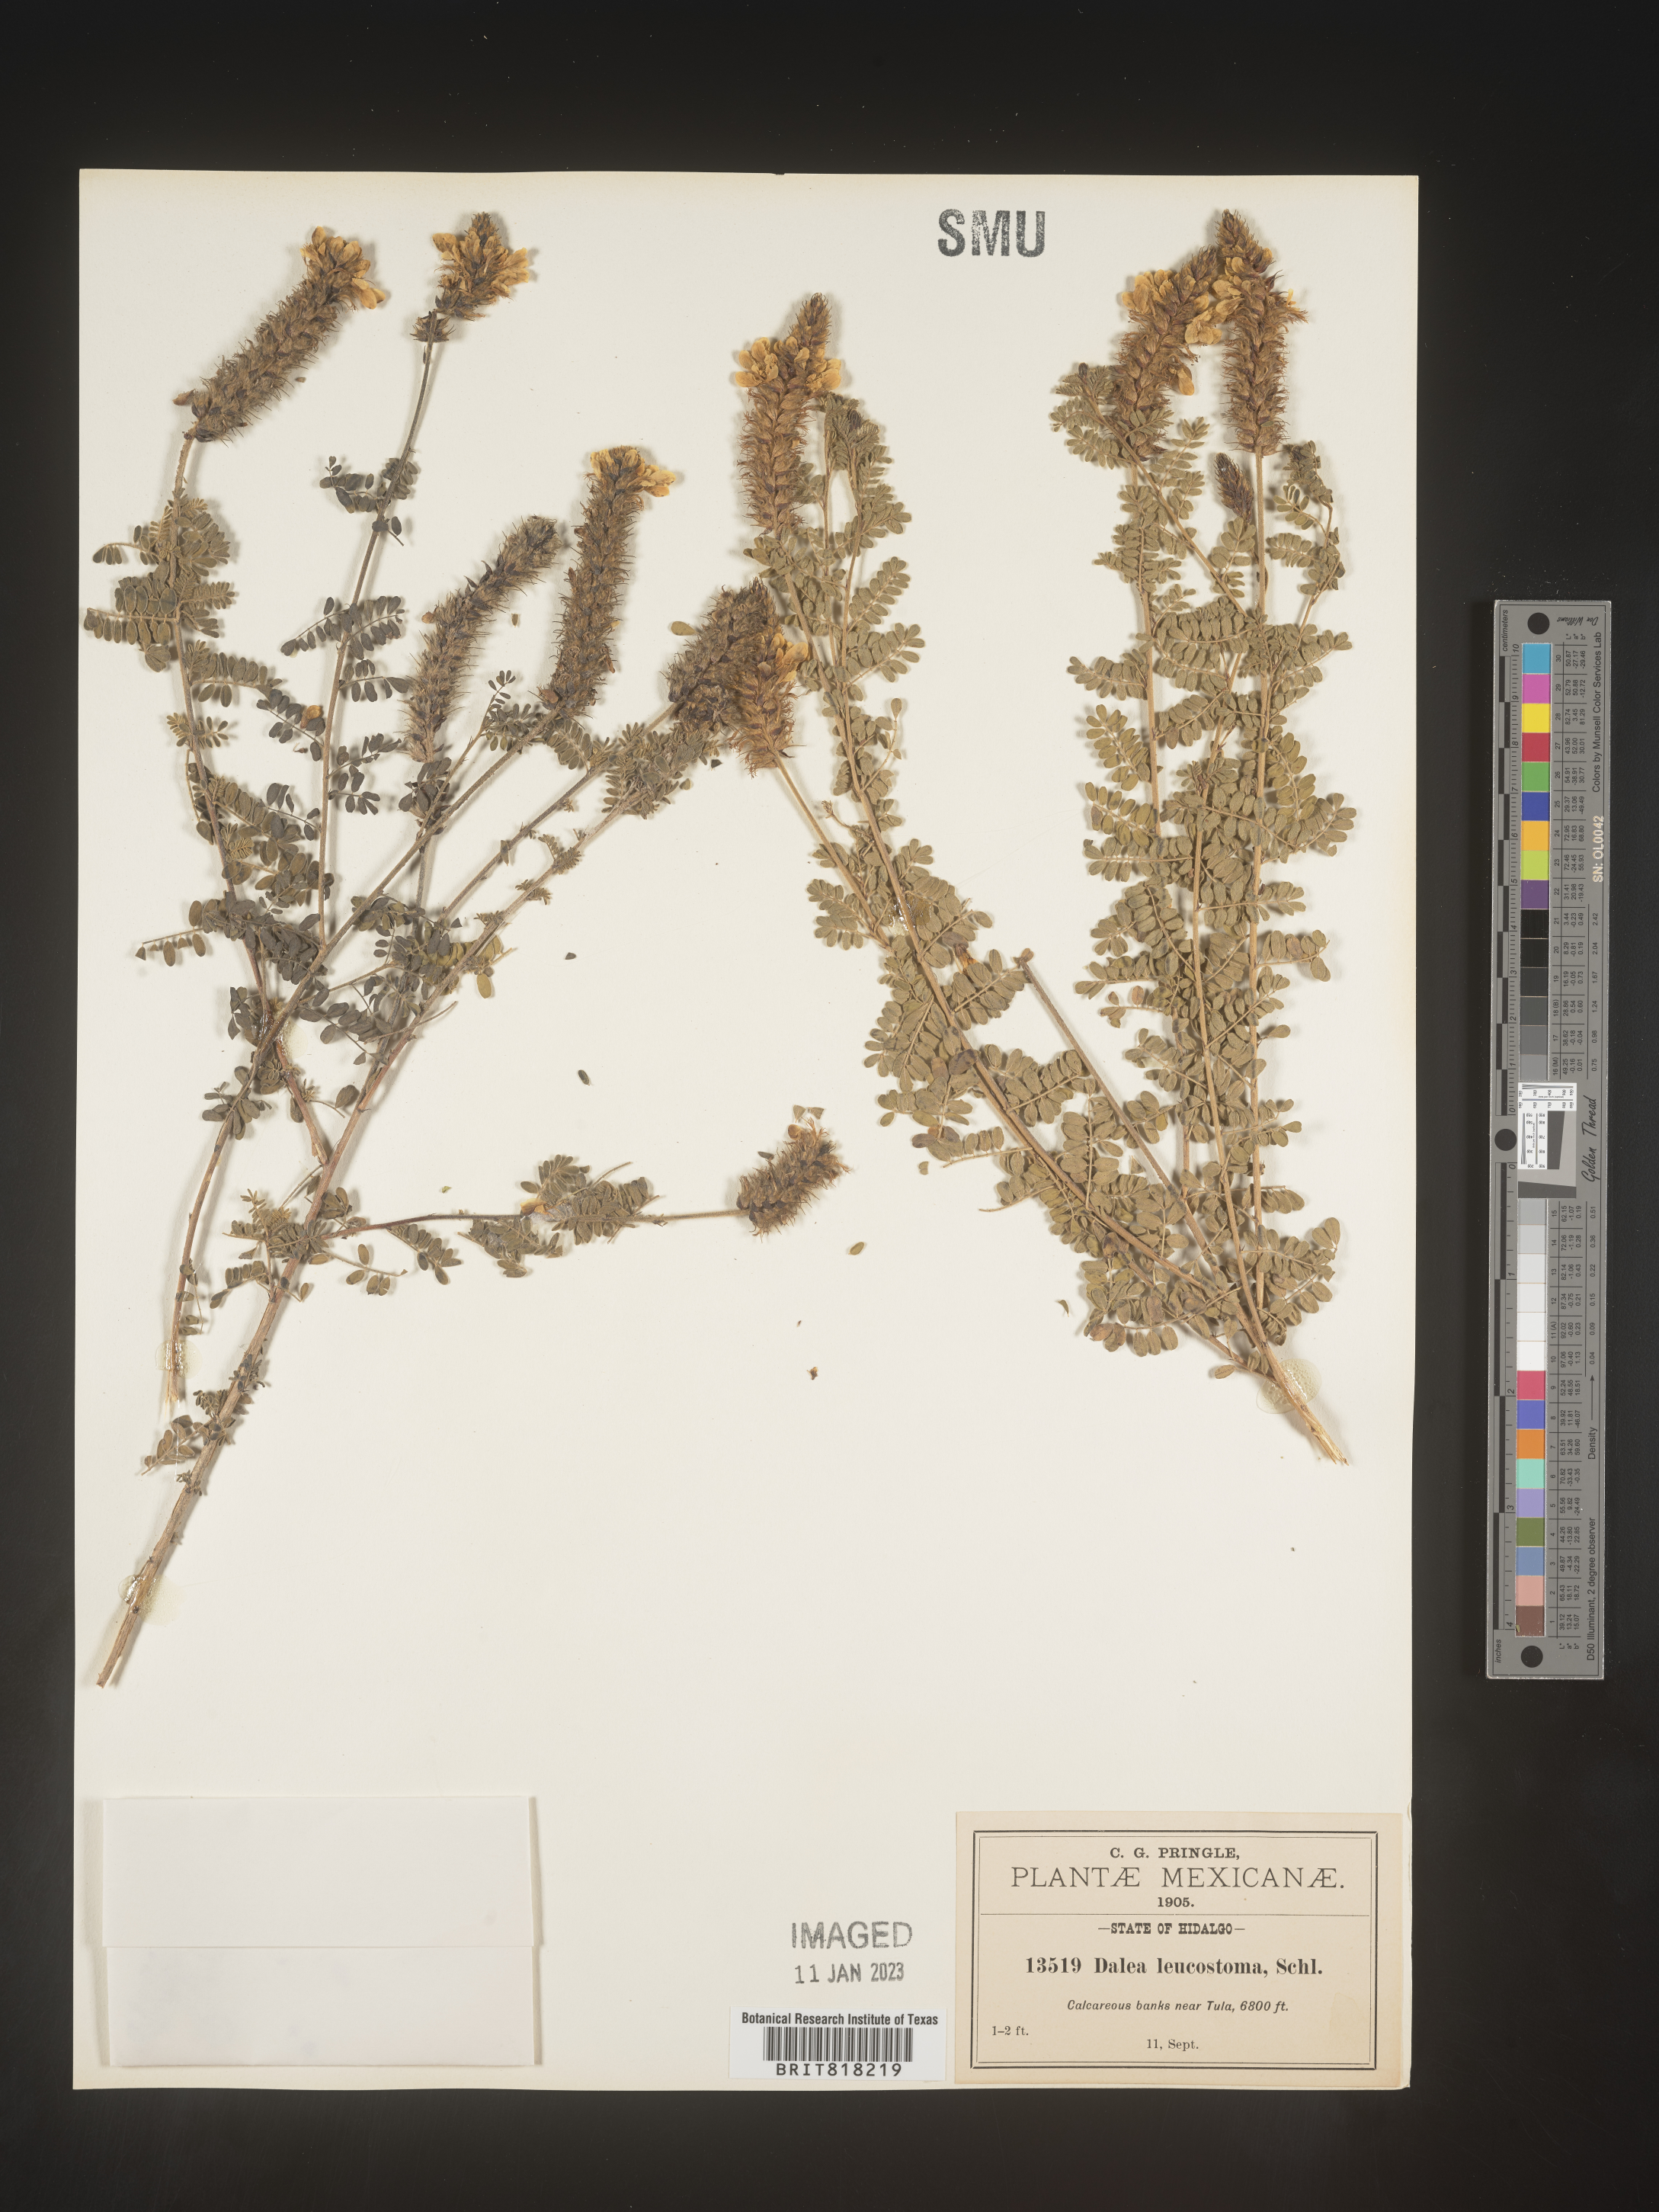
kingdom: Plantae
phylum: Tracheophyta
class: Magnoliopsida
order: Fabales
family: Fabaceae
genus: Dalea
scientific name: Dalea
